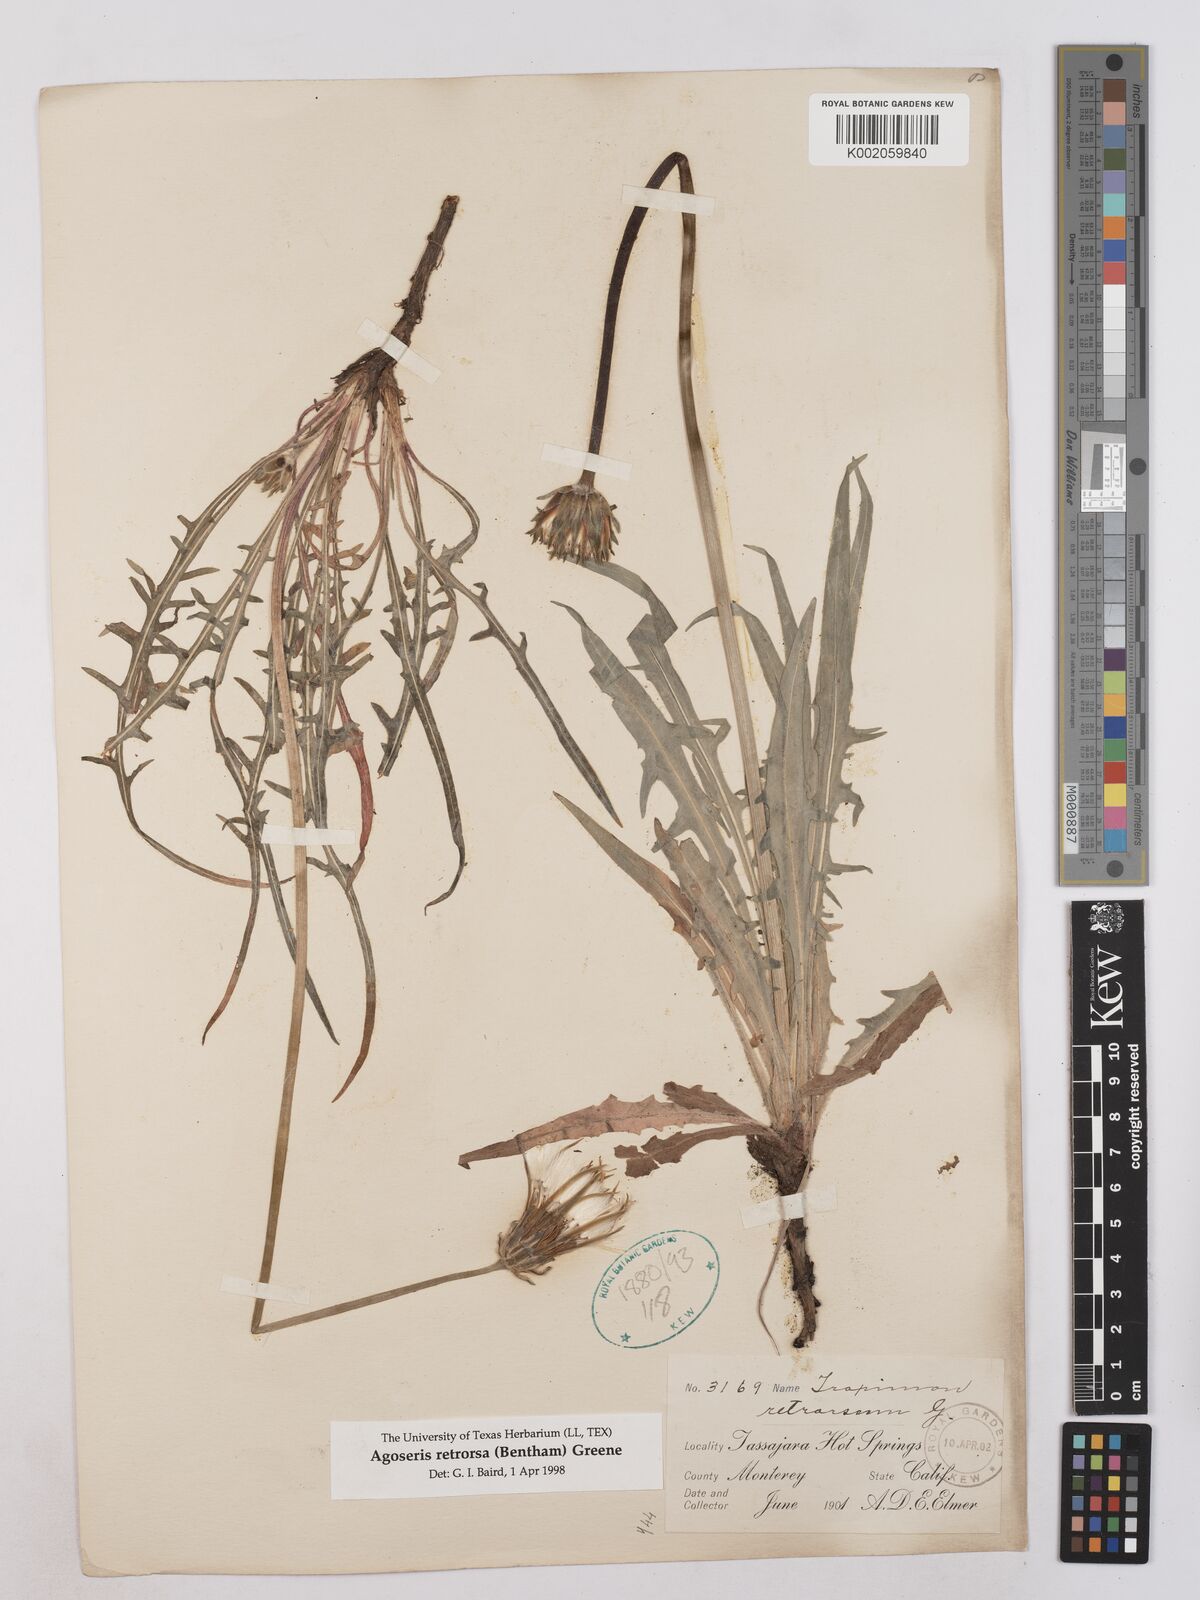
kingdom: Plantae
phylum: Tracheophyta
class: Magnoliopsida
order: Asterales
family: Asteraceae
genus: Agoseris
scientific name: Agoseris retrorsa
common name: Spearleaf agoseris
